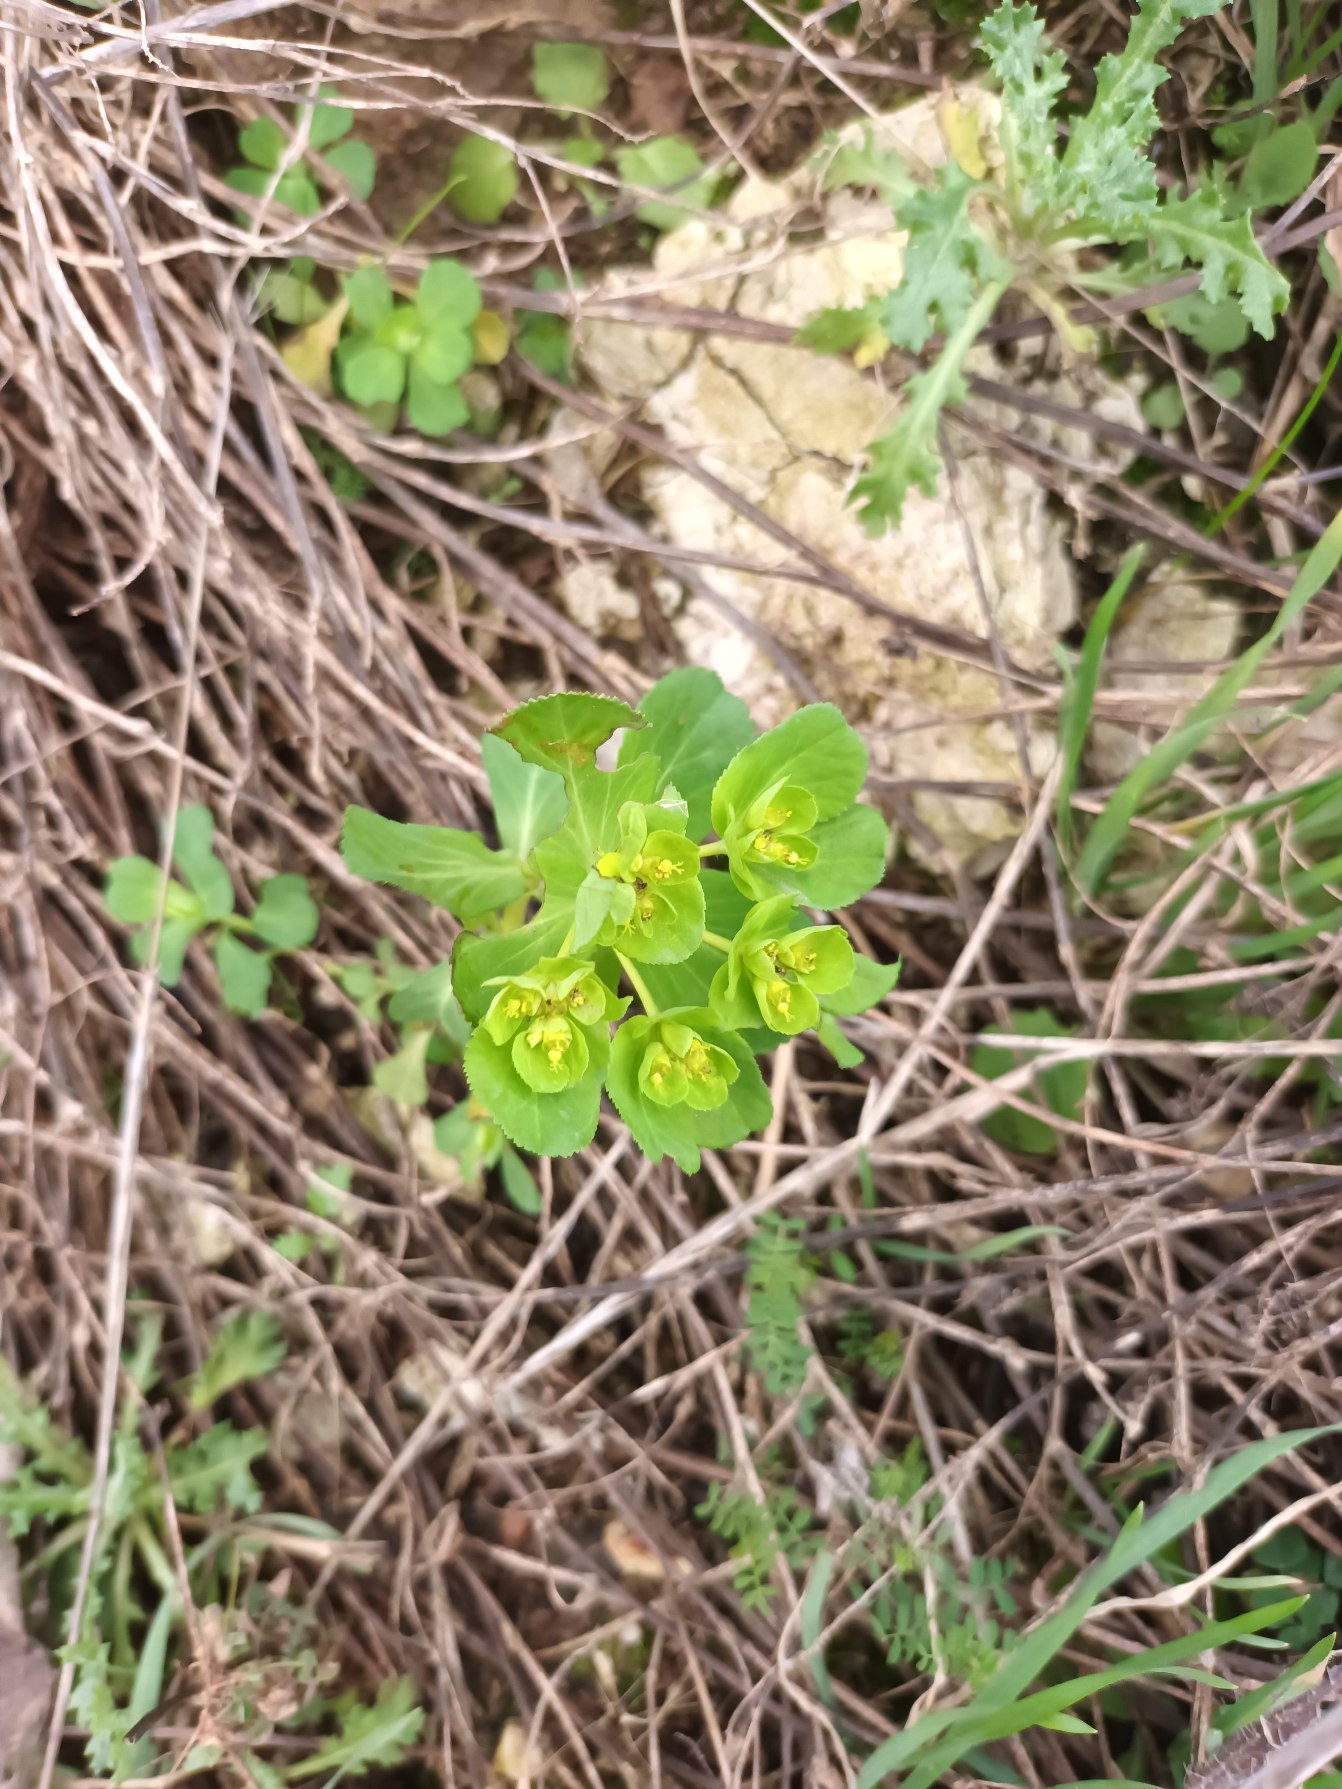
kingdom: Plantae
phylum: Tracheophyta
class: Magnoliopsida
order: Malpighiales
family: Euphorbiaceae
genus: Euphorbia
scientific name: Euphorbia helioscopia
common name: Skærm-vortemælk
